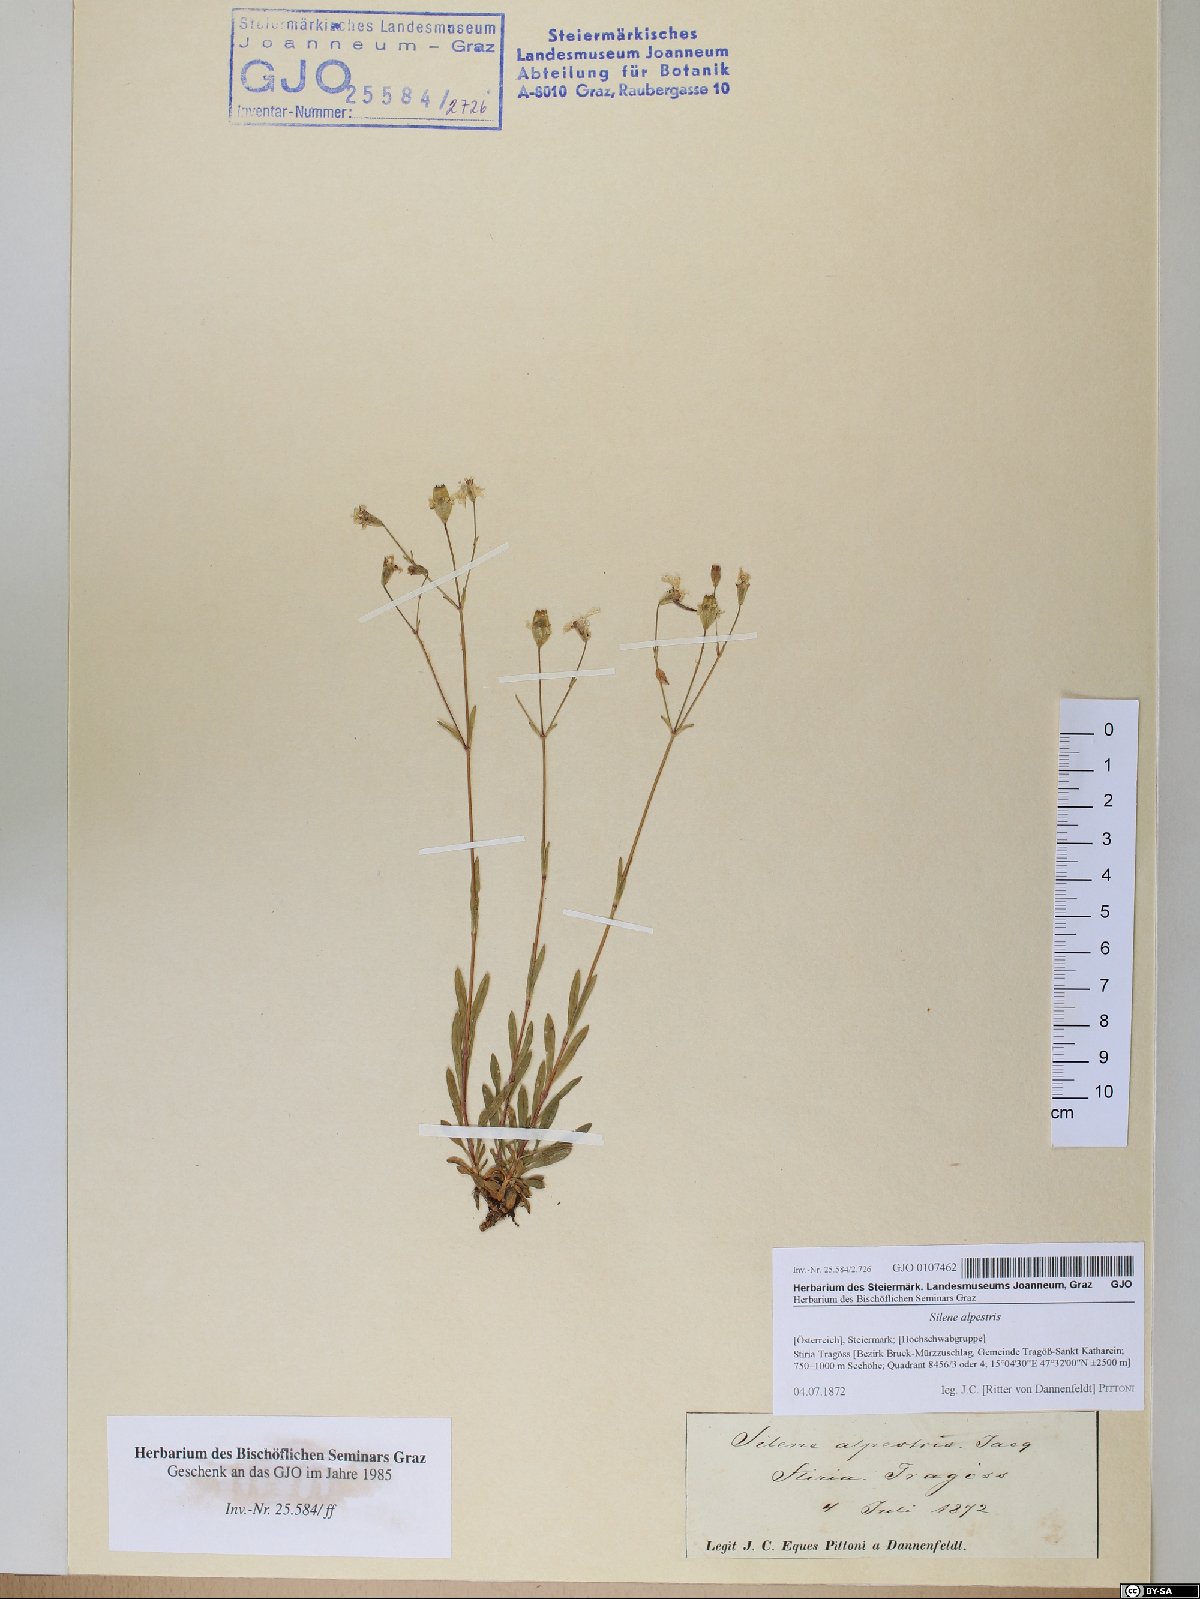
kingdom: Plantae
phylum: Tracheophyta
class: Magnoliopsida
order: Caryophyllales
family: Caryophyllaceae
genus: Heliosperma
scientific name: Heliosperma alpestre
